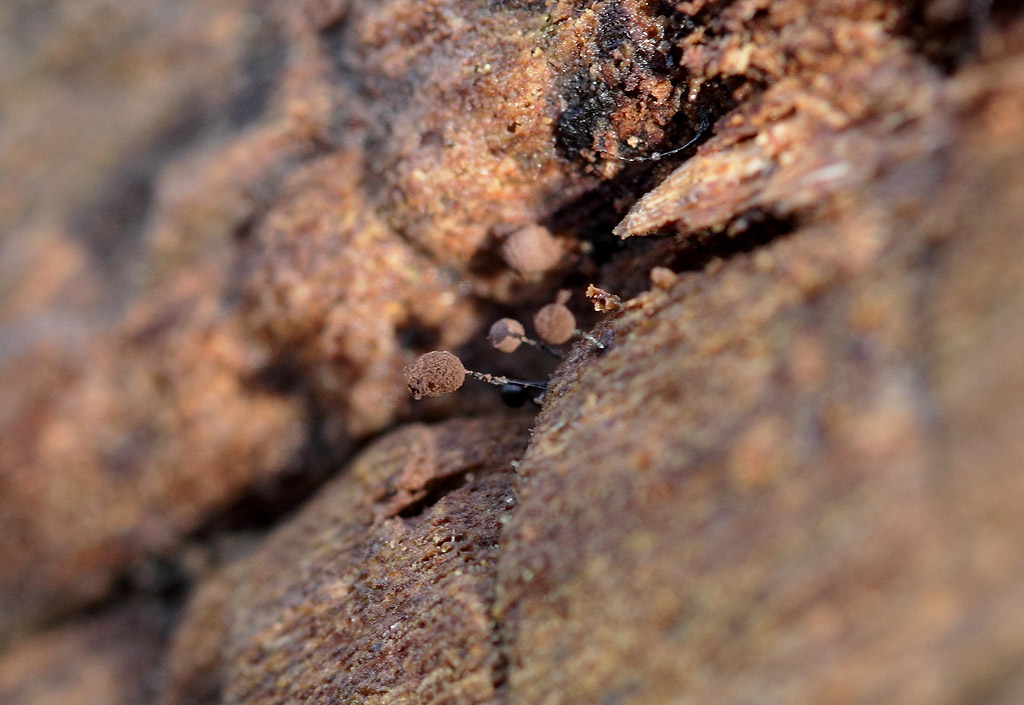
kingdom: Protozoa
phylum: Mycetozoa
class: Myxomycetes
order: Stemonitidales
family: Stemonitidaceae
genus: Comatricha
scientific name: Comatricha nigra
